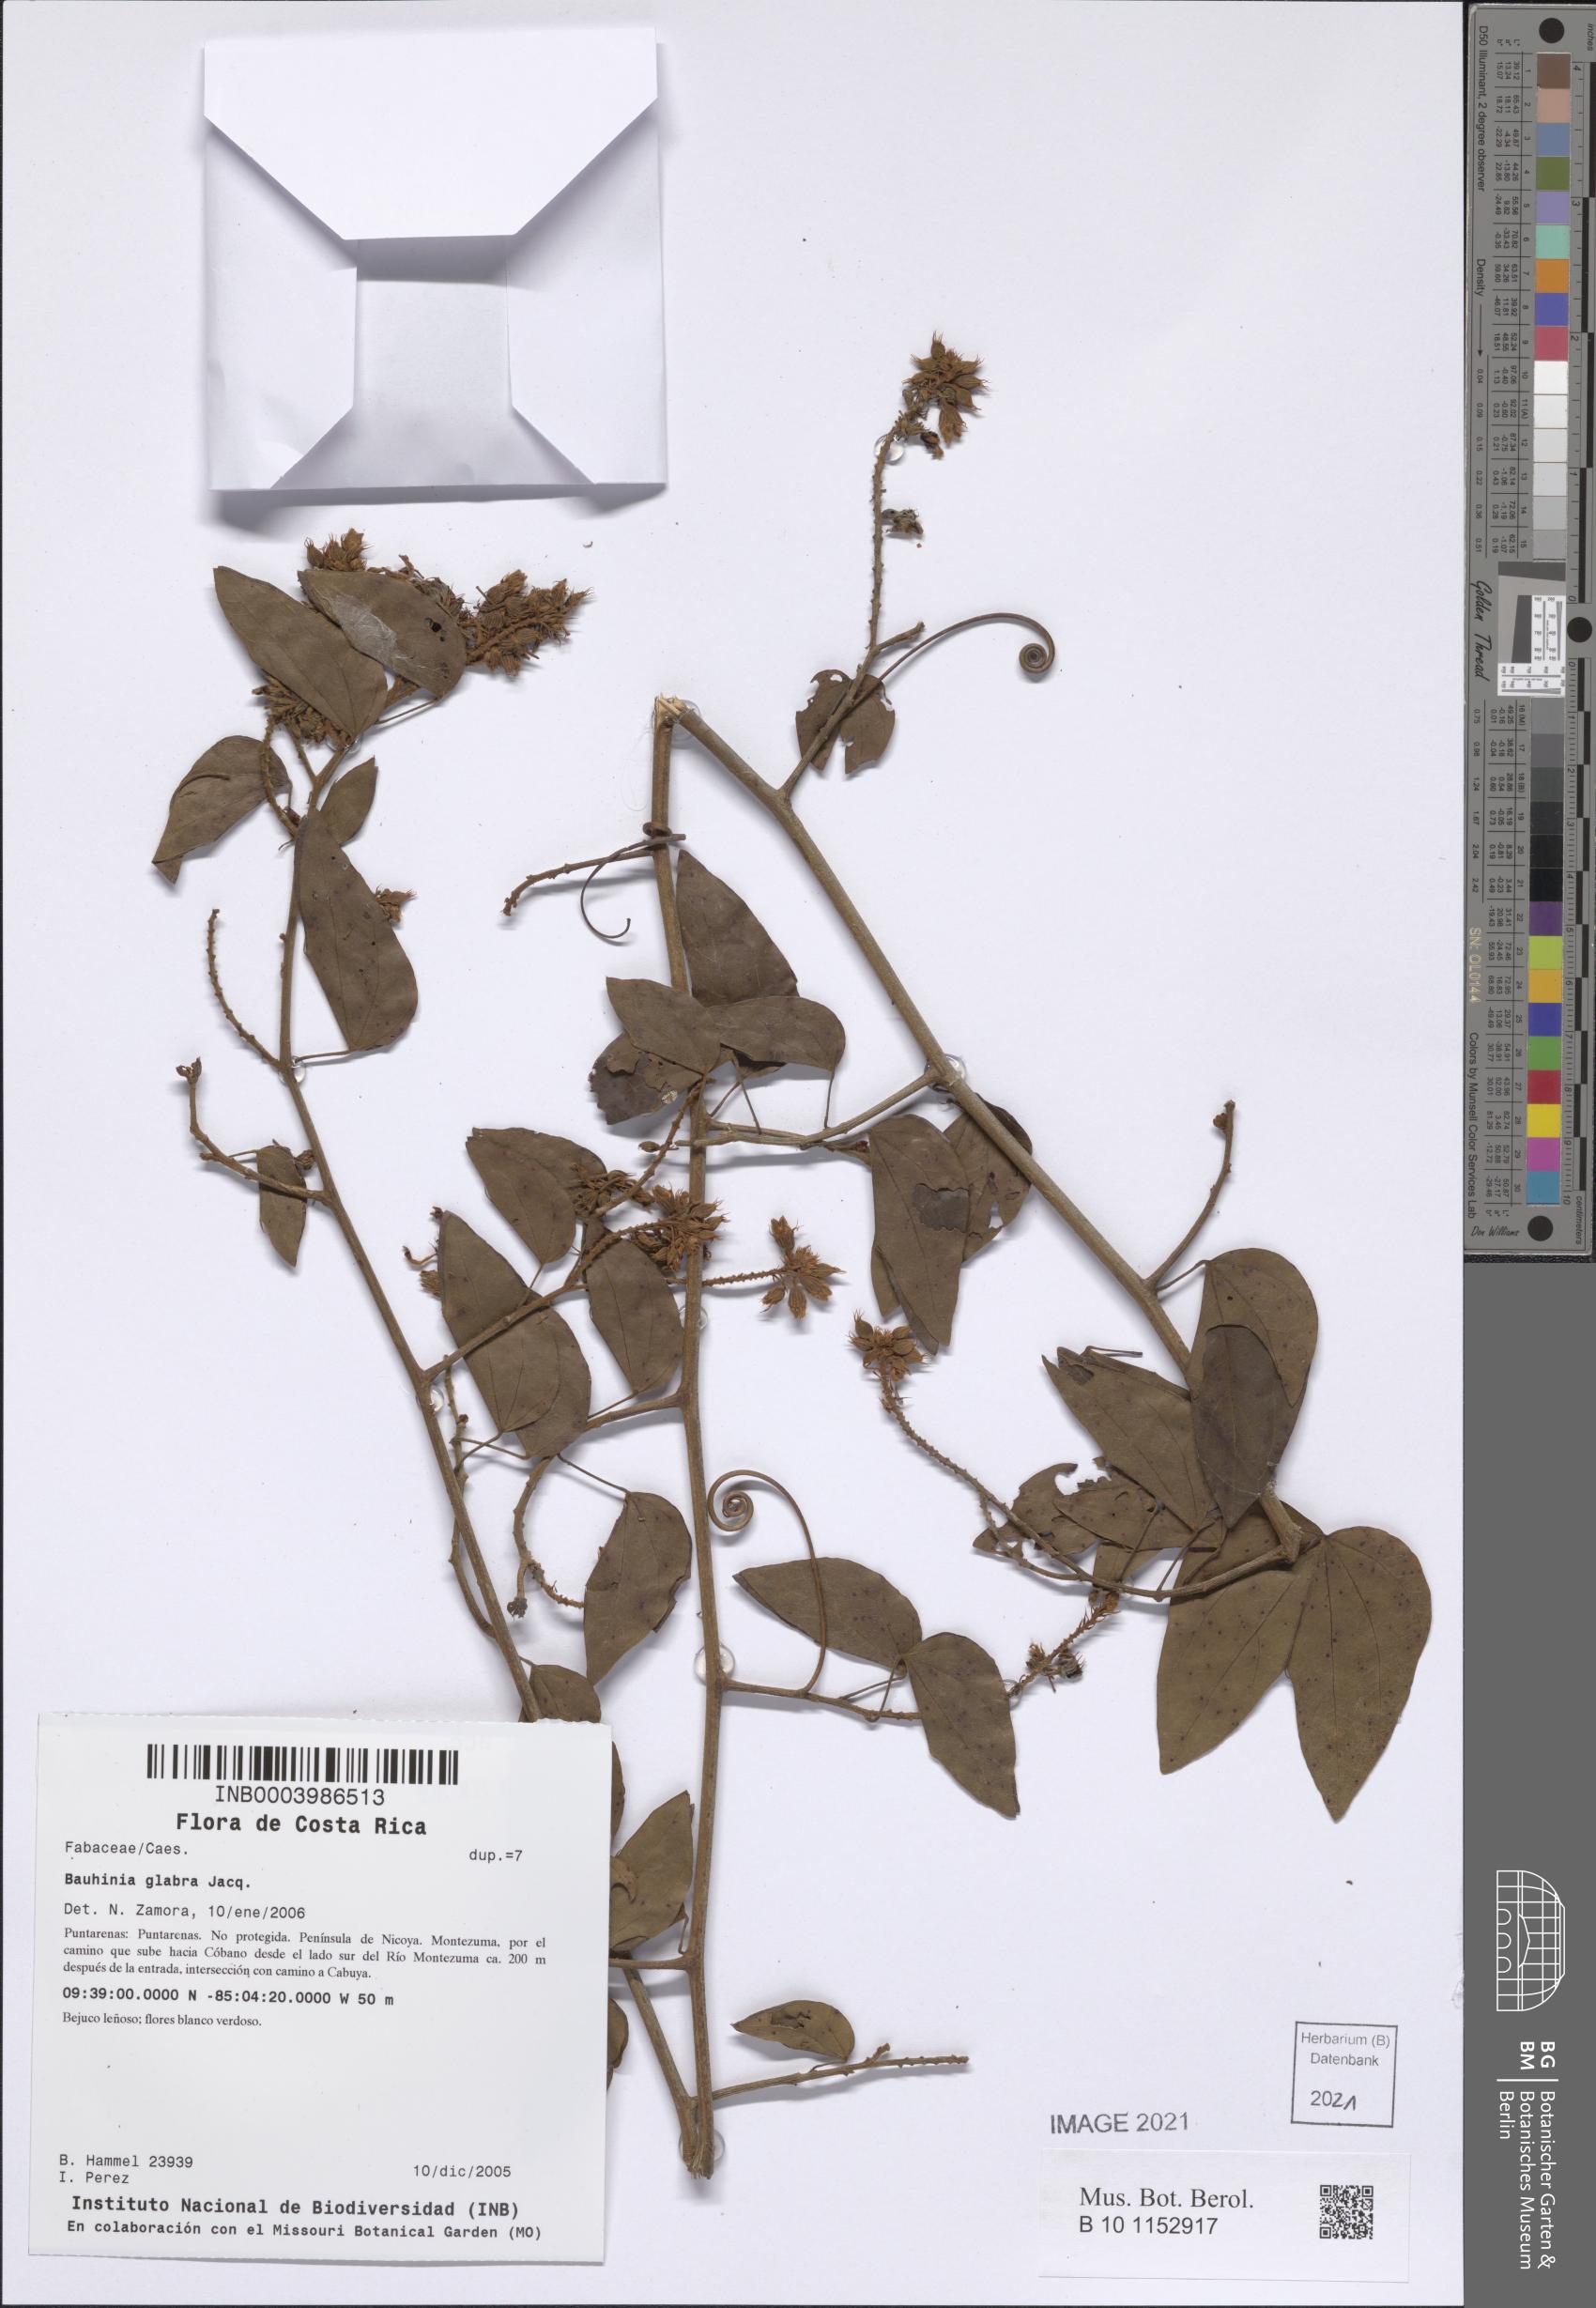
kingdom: Plantae
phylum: Tracheophyta
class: Magnoliopsida
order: Fabales
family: Fabaceae
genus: Schnella
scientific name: Schnella glabra
